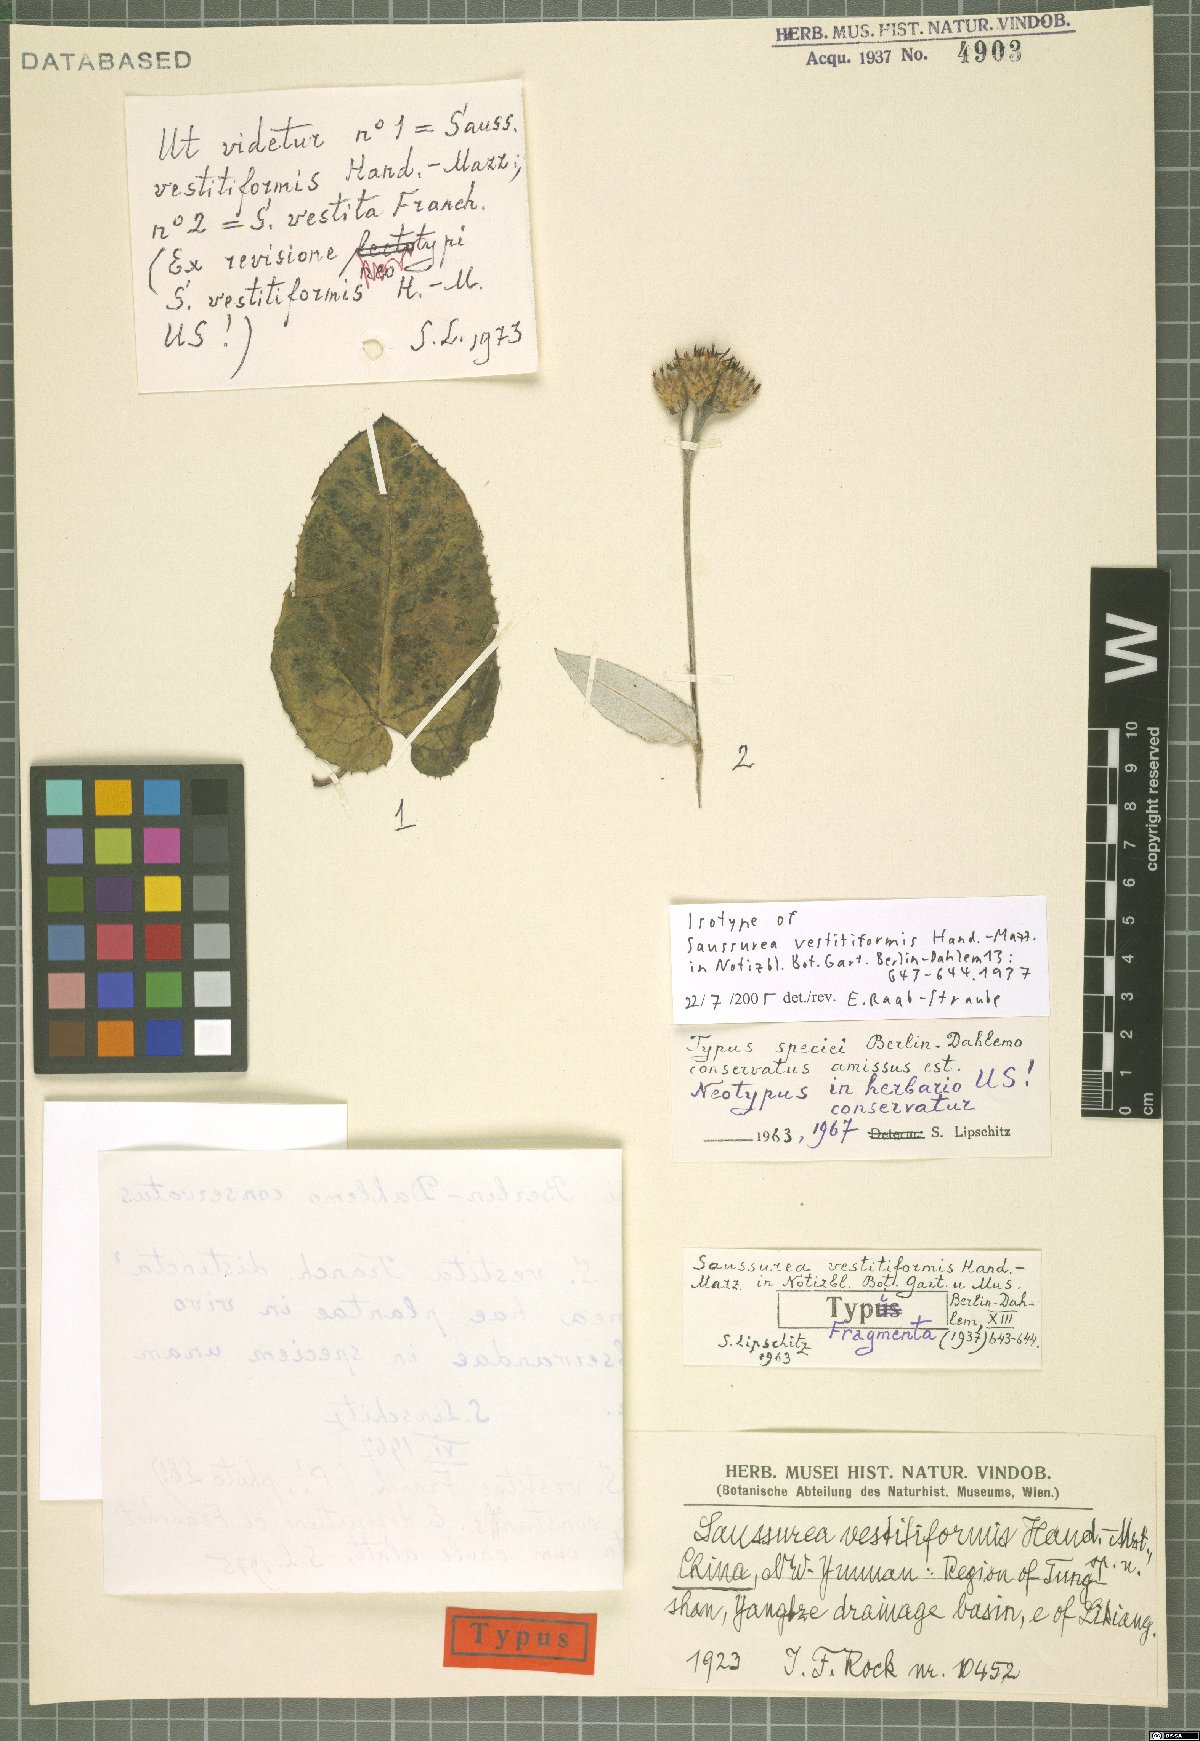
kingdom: Plantae
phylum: Tracheophyta
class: Magnoliopsida
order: Asterales
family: Asteraceae
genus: Saussurea
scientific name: Saussurea vestitiformis
